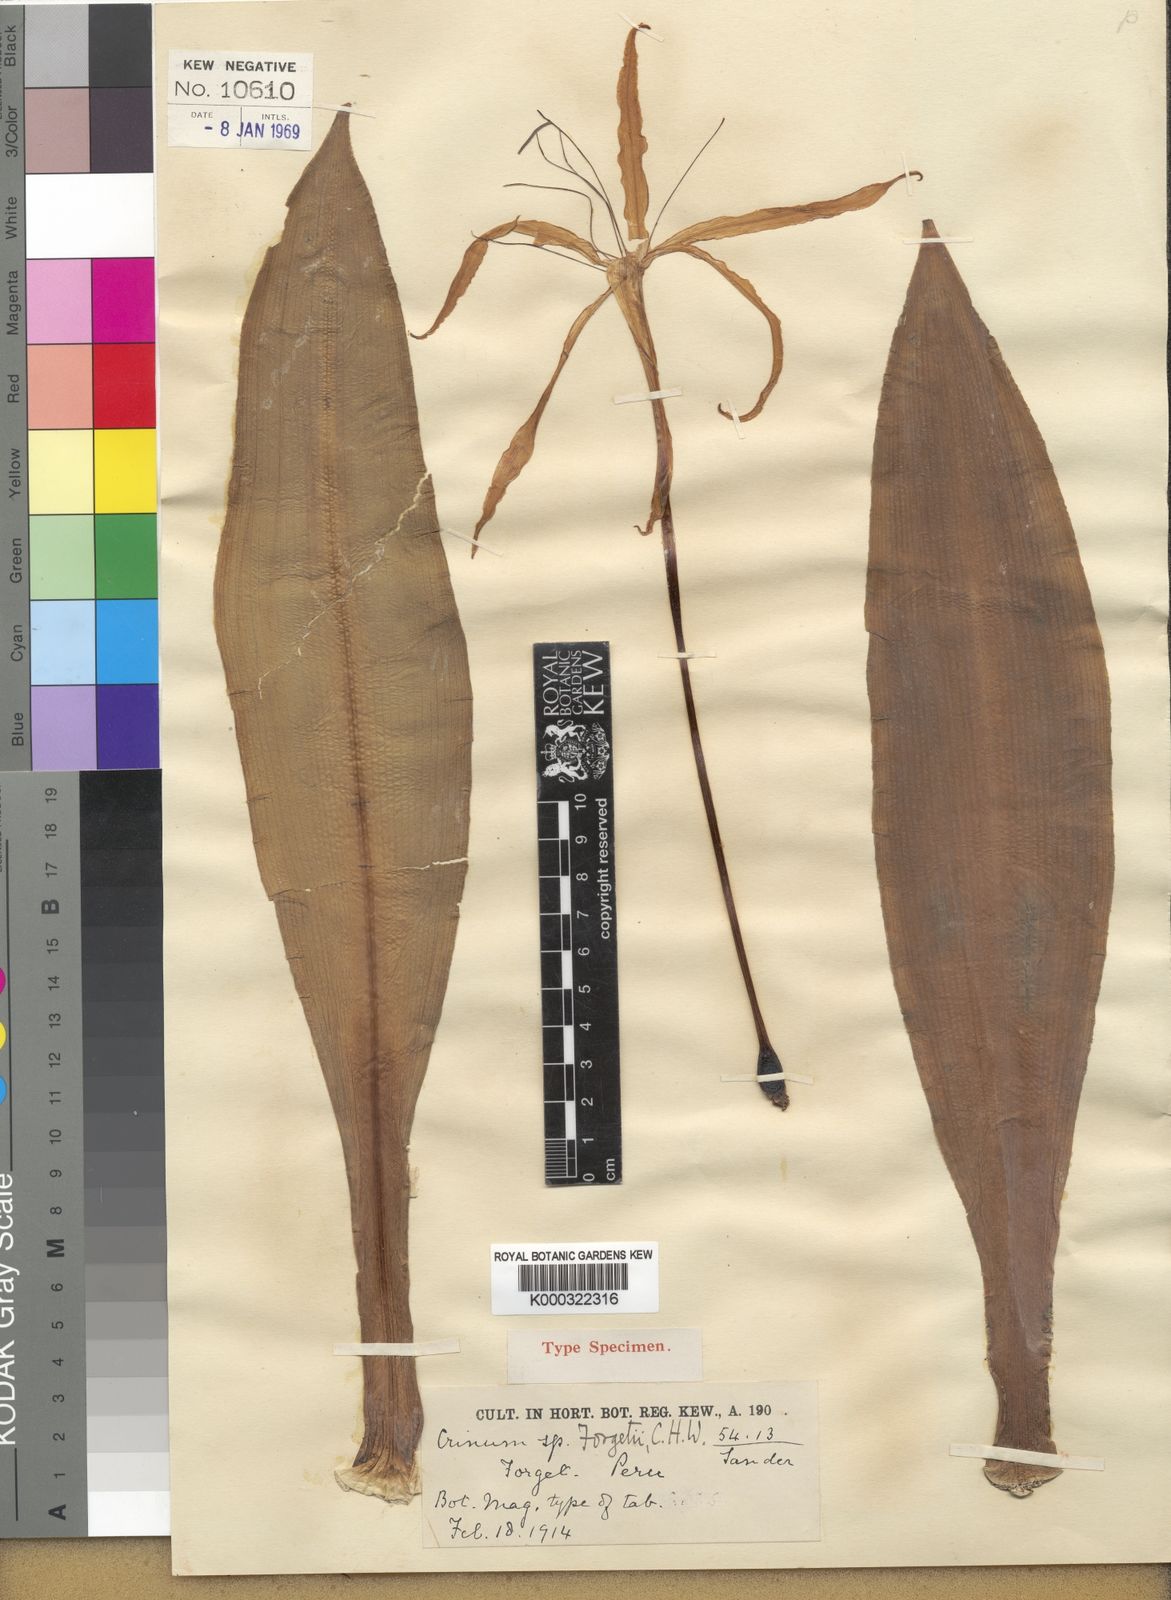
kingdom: Plantae
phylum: Tracheophyta
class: Liliopsida
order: Asparagales
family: Amaryllidaceae
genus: Crinum
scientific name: Crinum forgetii
